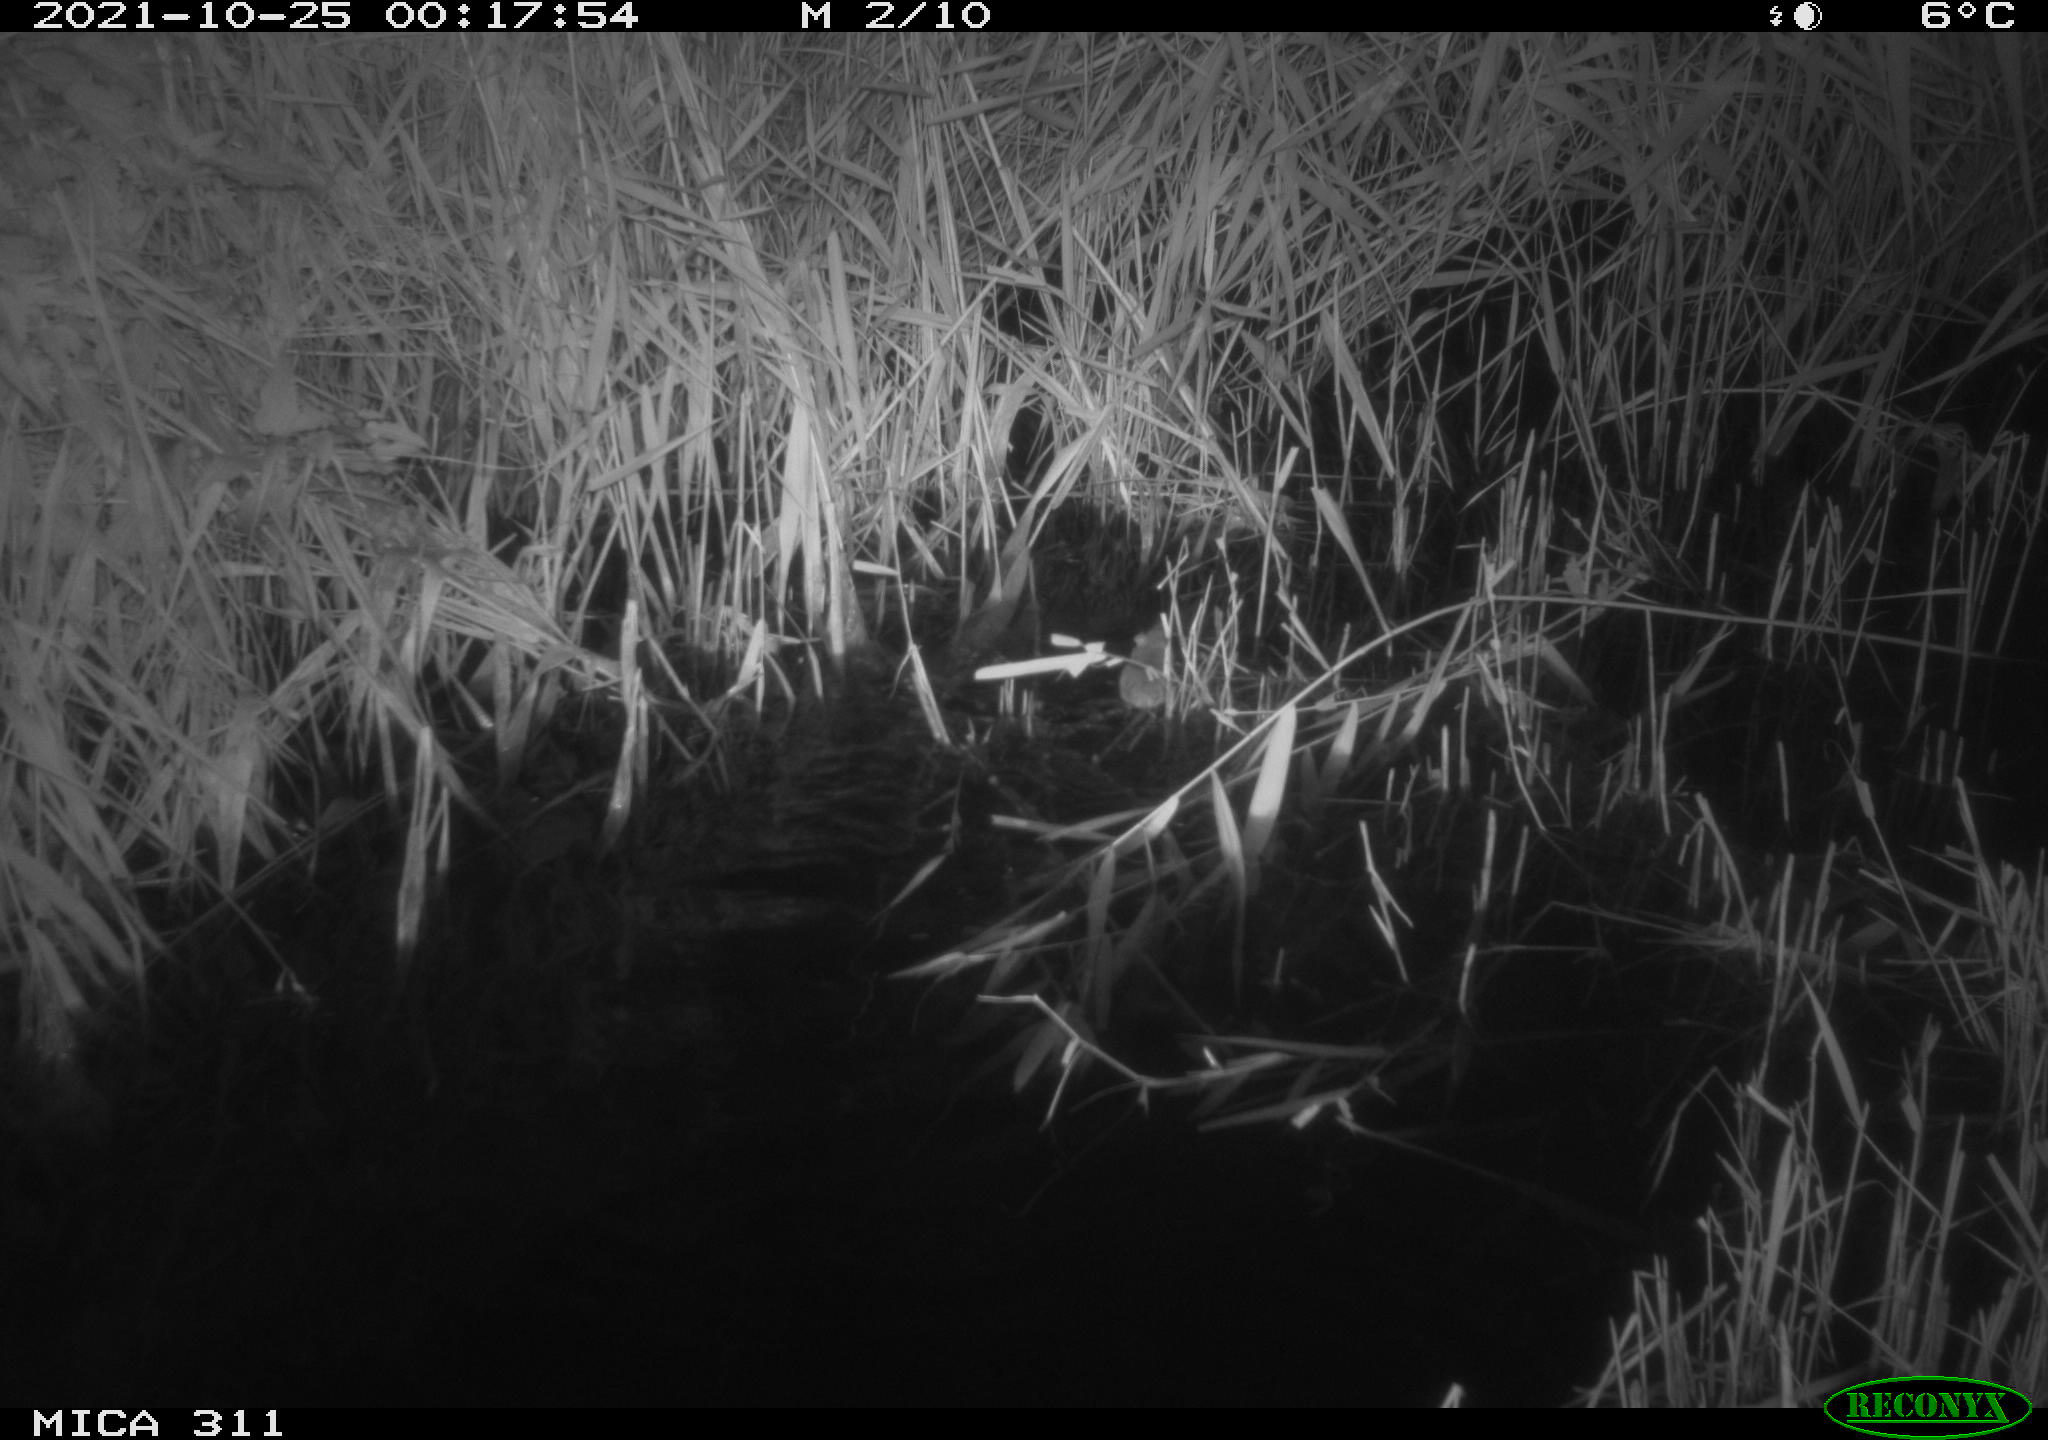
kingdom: Animalia
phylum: Chordata
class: Mammalia
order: Rodentia
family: Muridae
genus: Rattus
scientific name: Rattus norvegicus
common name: Brown rat
